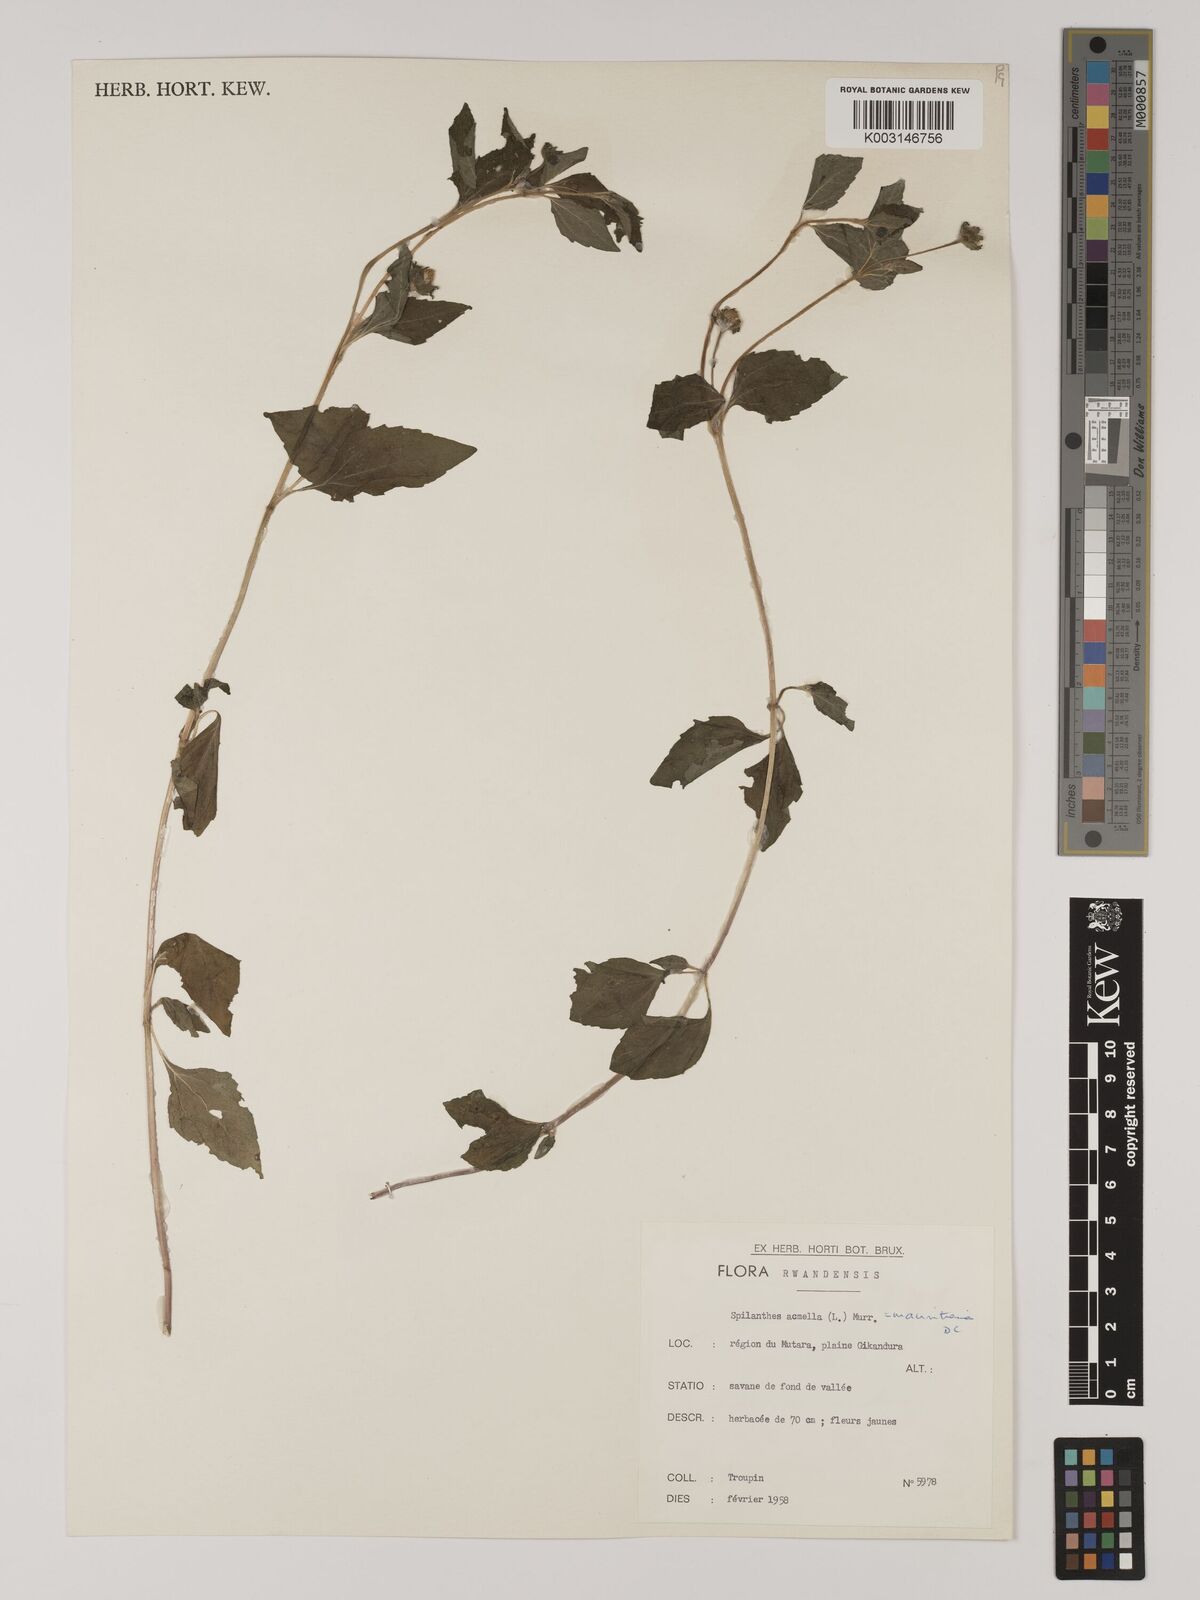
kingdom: Plantae
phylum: Tracheophyta
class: Magnoliopsida
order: Asterales
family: Asteraceae
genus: Acmella
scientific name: Acmella caulirhiza
